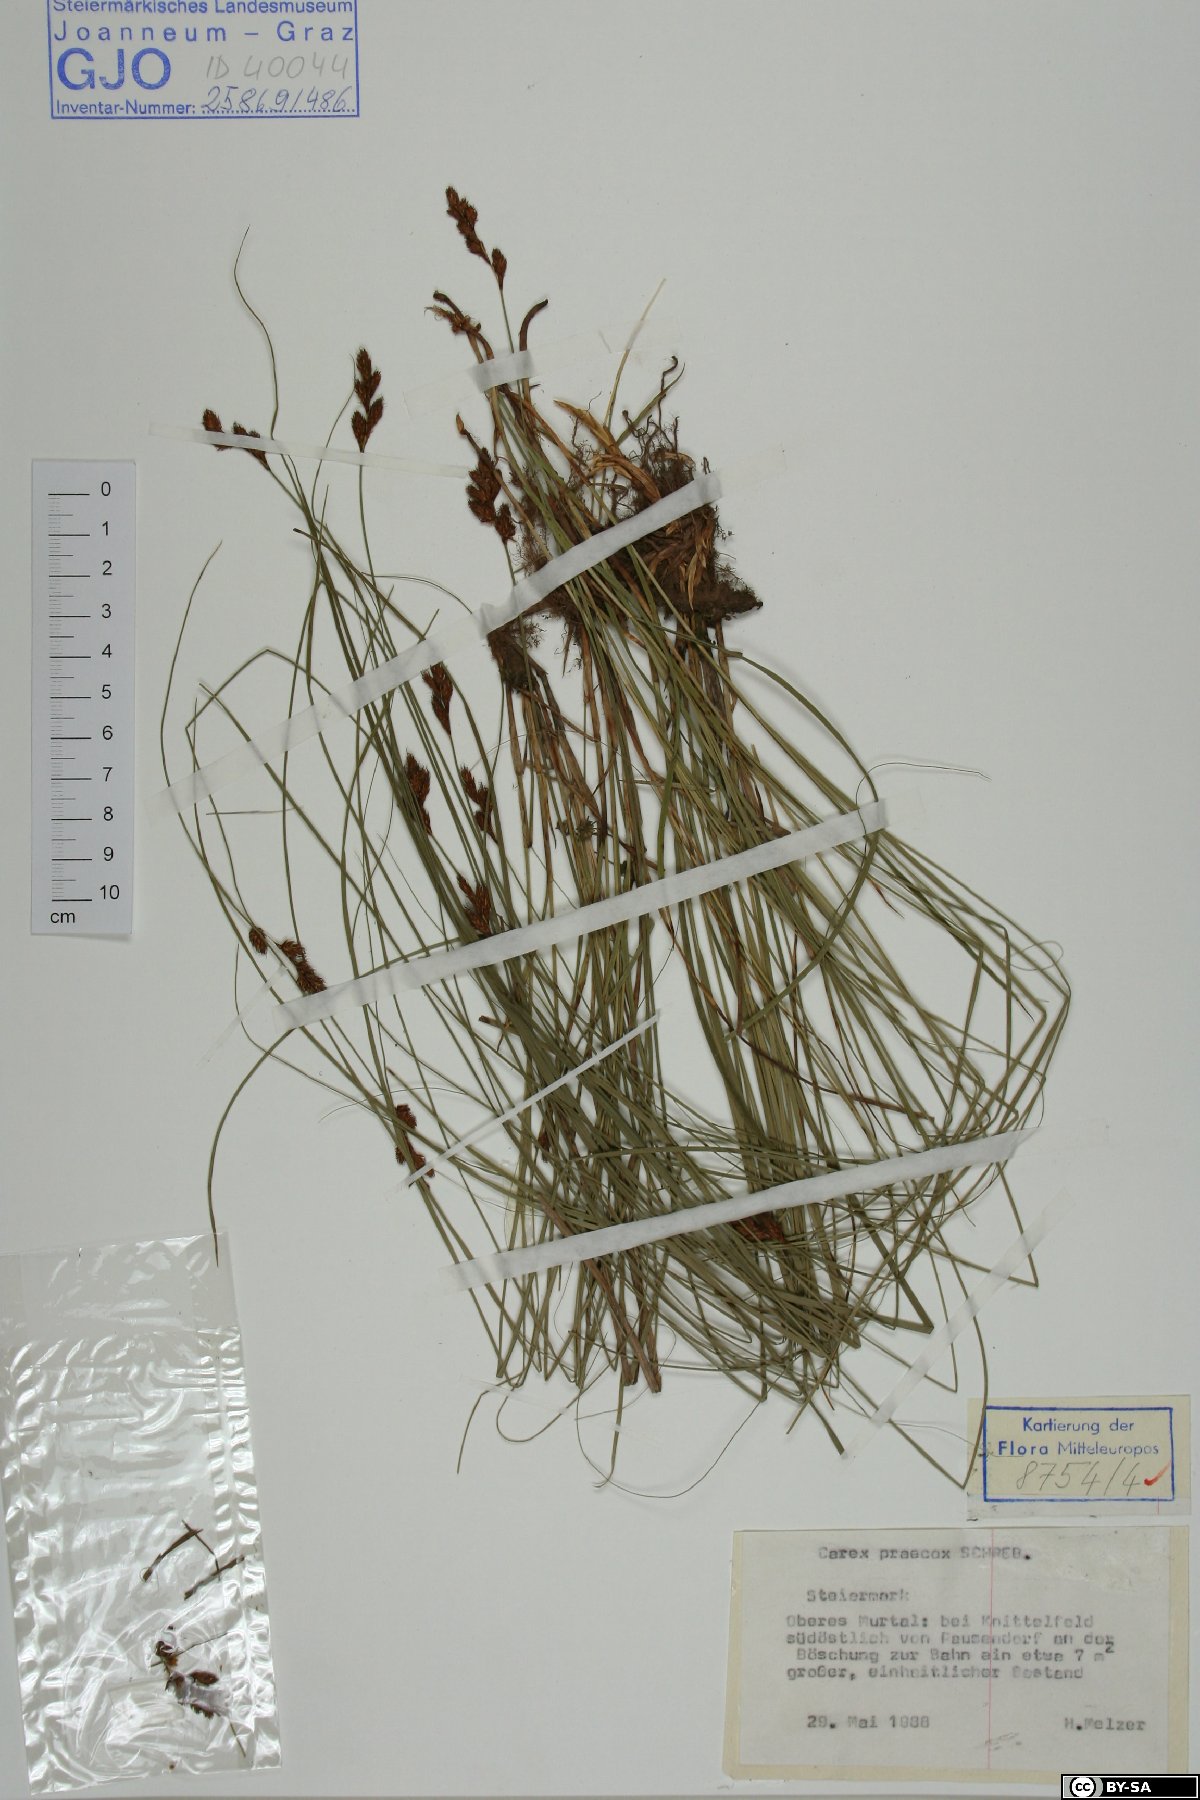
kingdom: Plantae
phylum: Tracheophyta
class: Liliopsida
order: Poales
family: Cyperaceae
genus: Carex
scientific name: Carex praecox
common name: Early sedge
